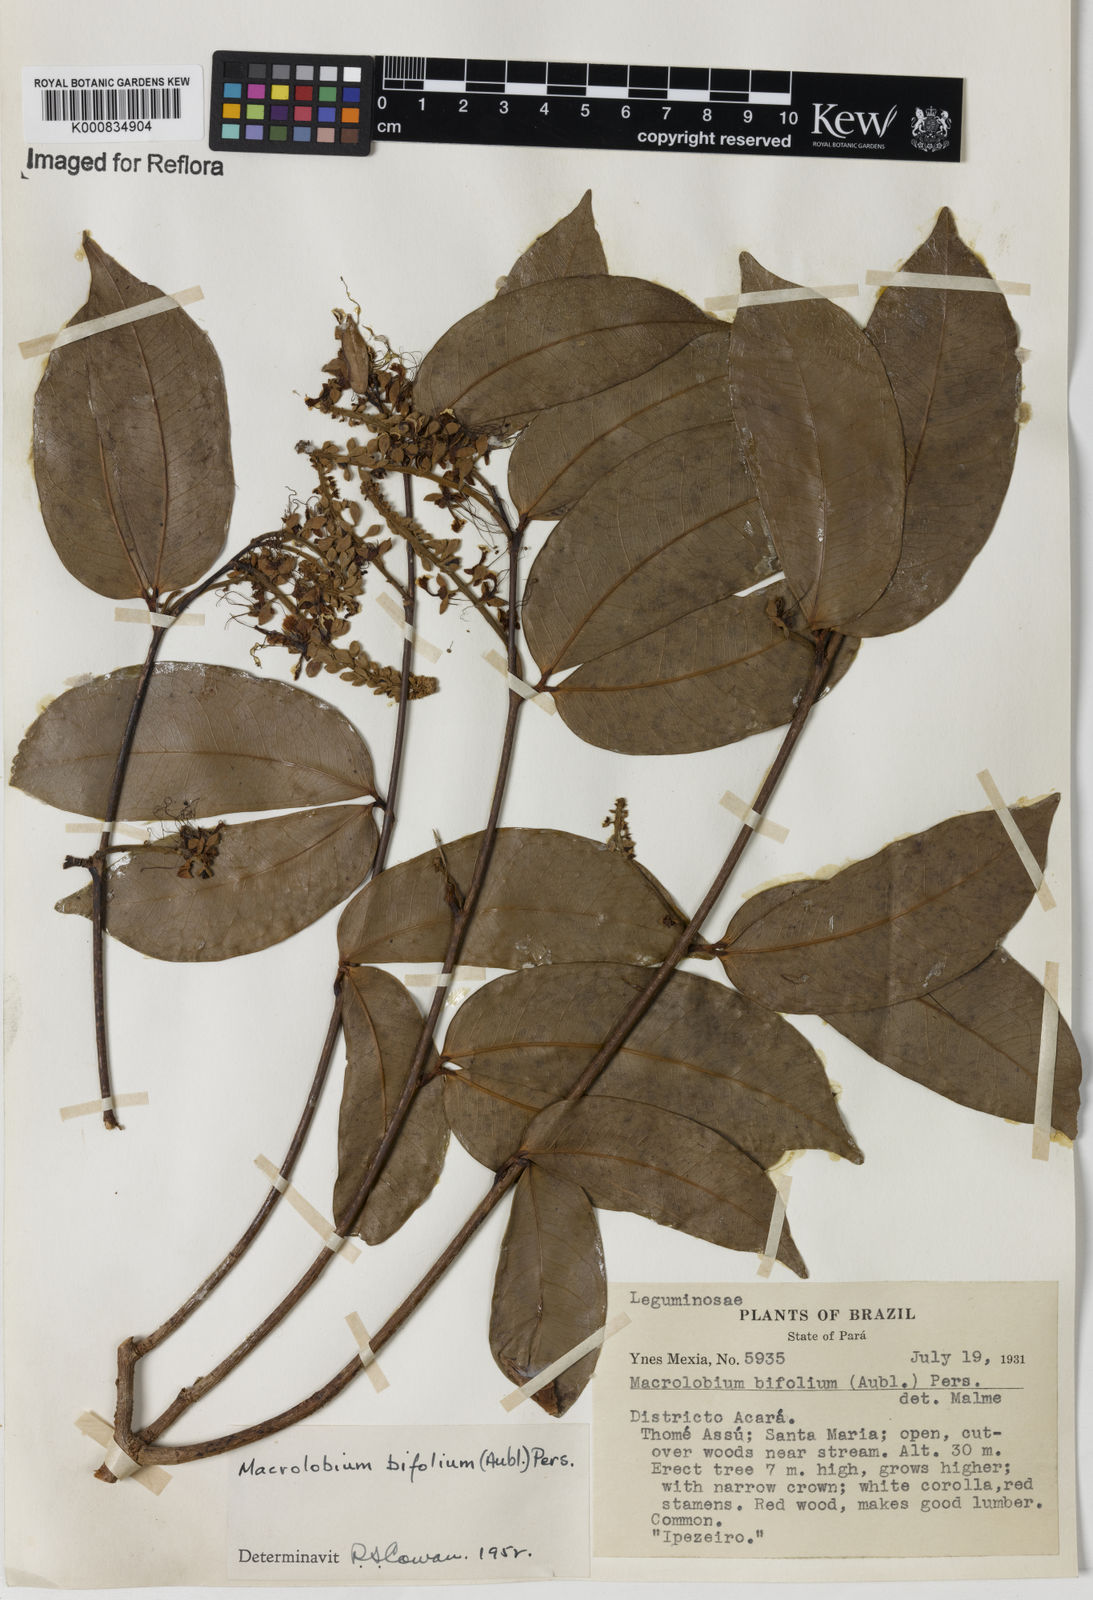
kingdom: Plantae
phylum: Tracheophyta
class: Magnoliopsida
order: Fabales
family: Fabaceae
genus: Macrolobium
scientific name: Macrolobium bifolium
